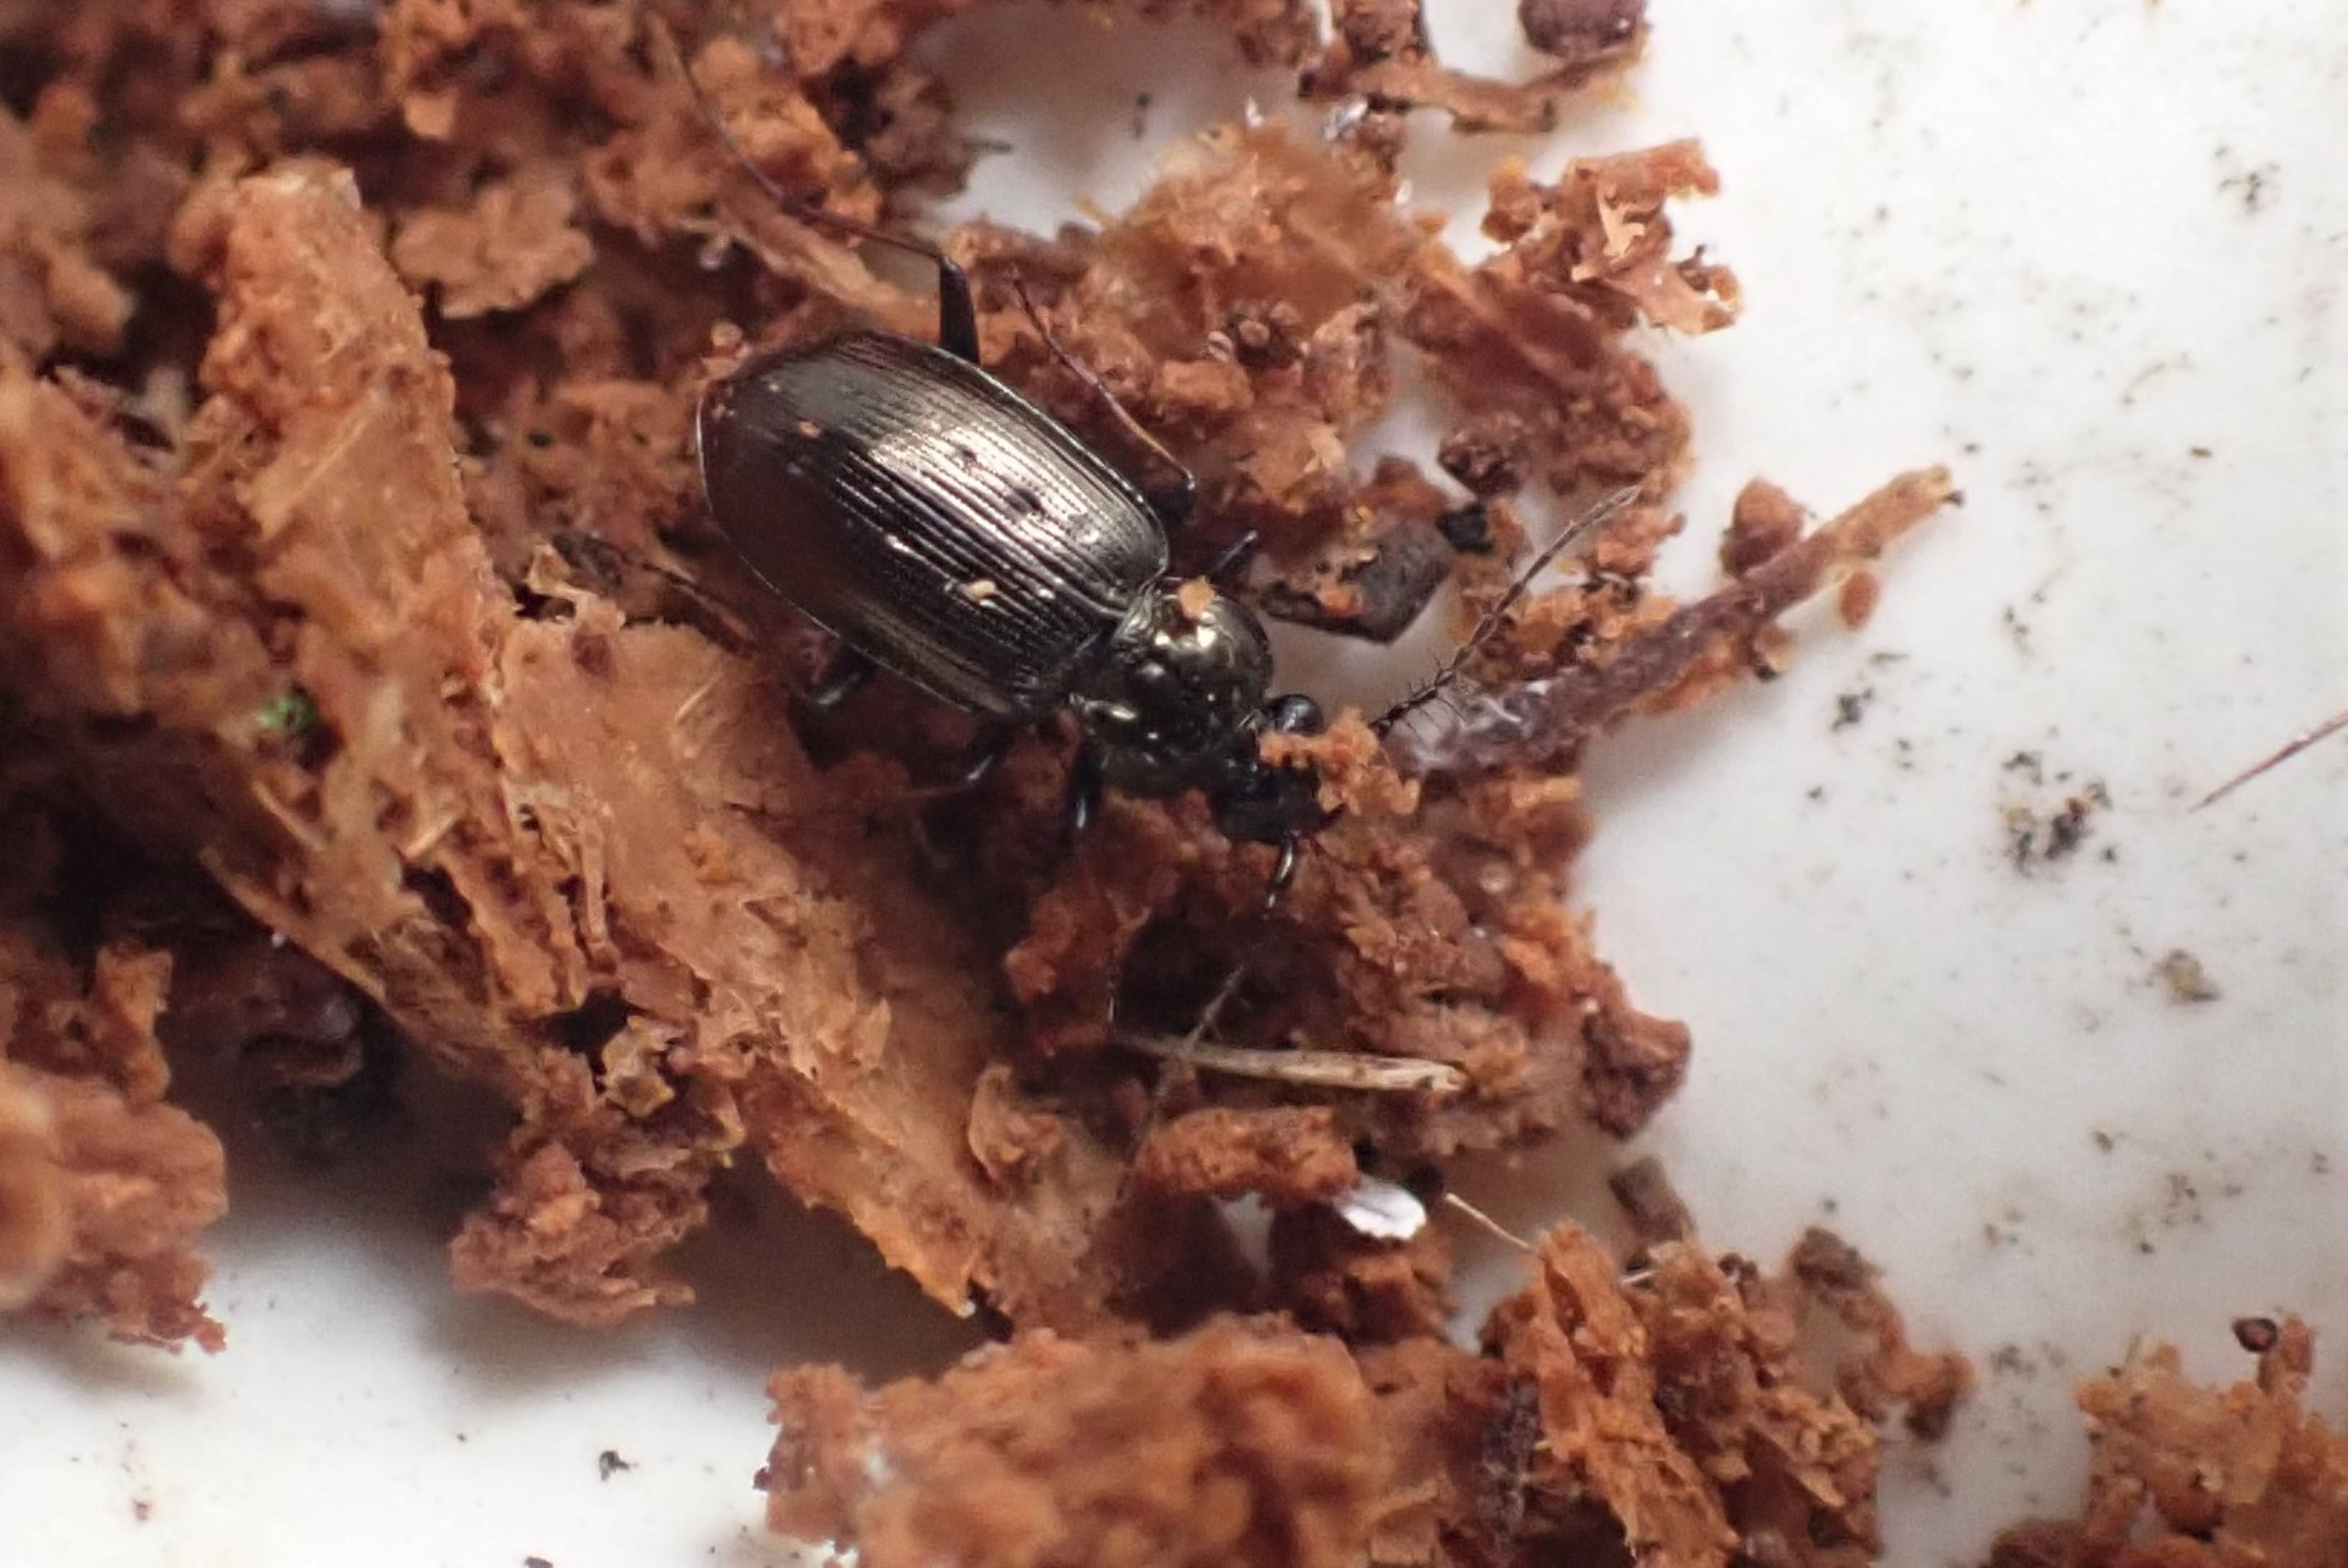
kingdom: Animalia
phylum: Arthropoda
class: Insecta
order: Coleoptera
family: Carabidae
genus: Loricera
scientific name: Loricera pilicornis
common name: Børsteløber
